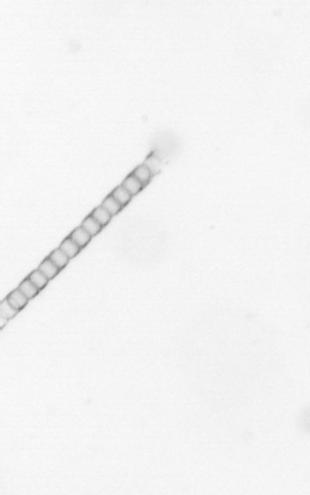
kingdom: Chromista
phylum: Ochrophyta
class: Bacillariophyceae
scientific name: Bacillariophyceae
